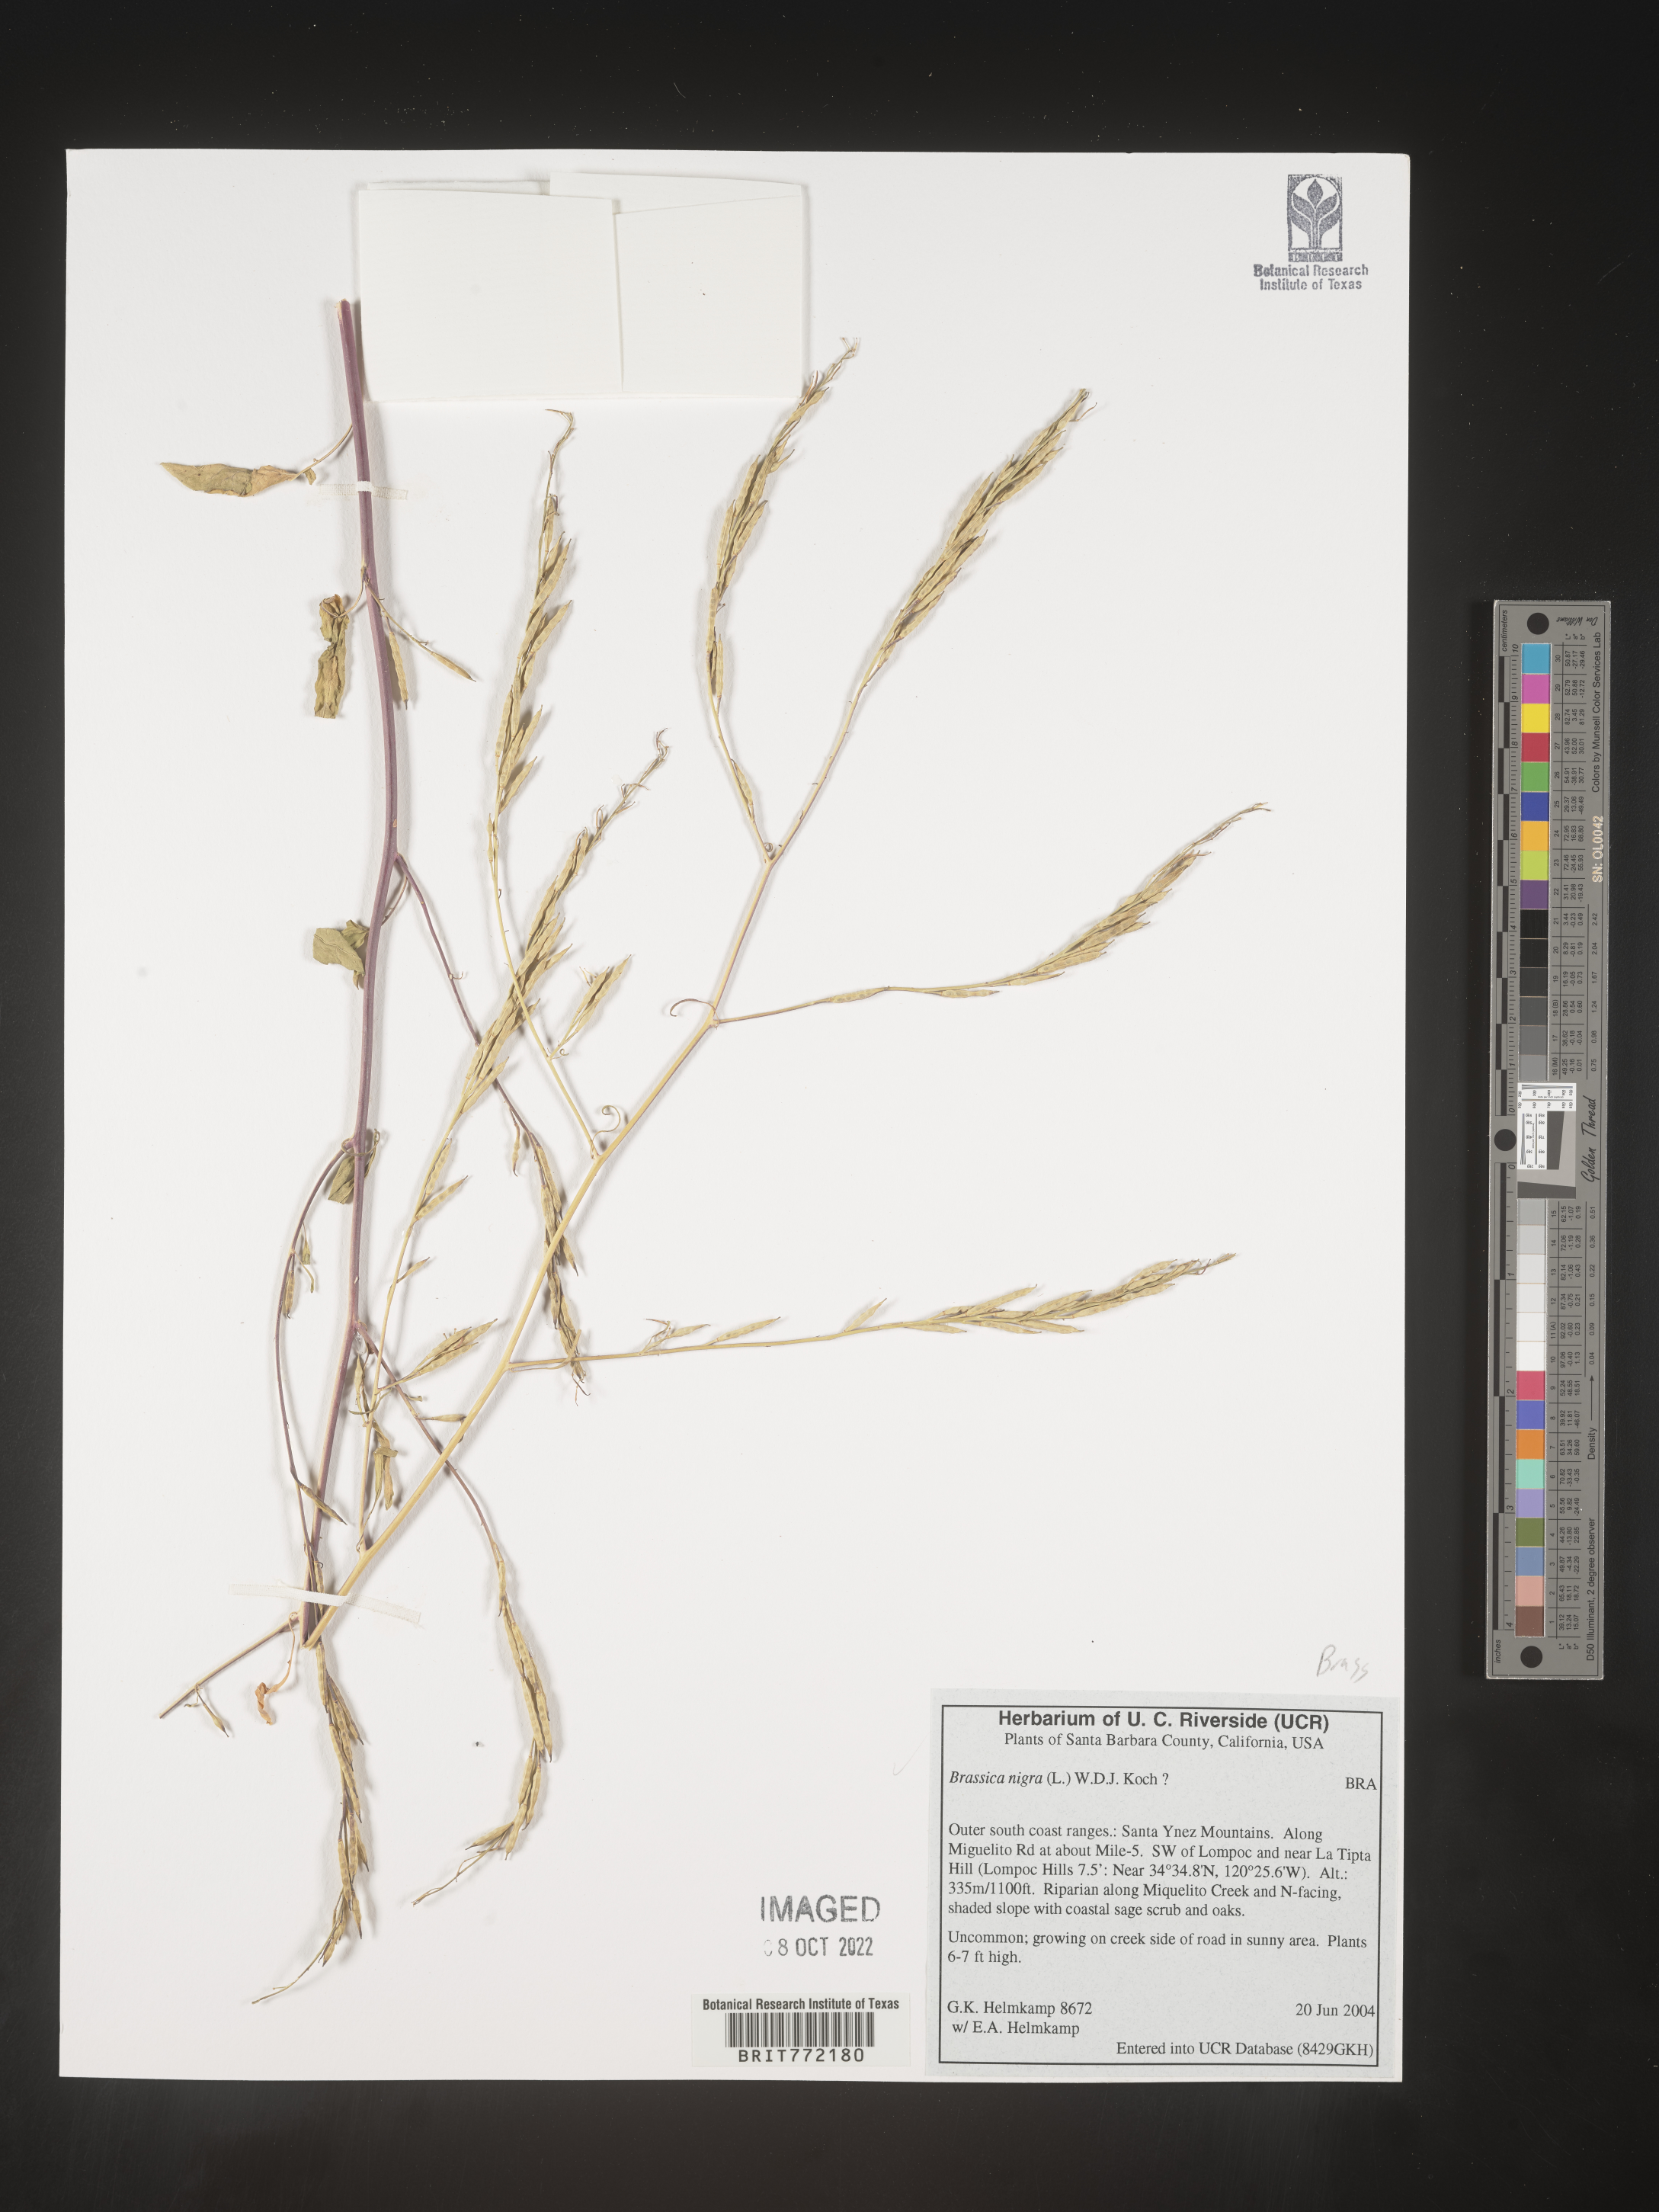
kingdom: Plantae
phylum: Tracheophyta
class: Magnoliopsida
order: Brassicales
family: Brassicaceae
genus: Brassica
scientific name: Brassica nigra
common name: Black mustard
